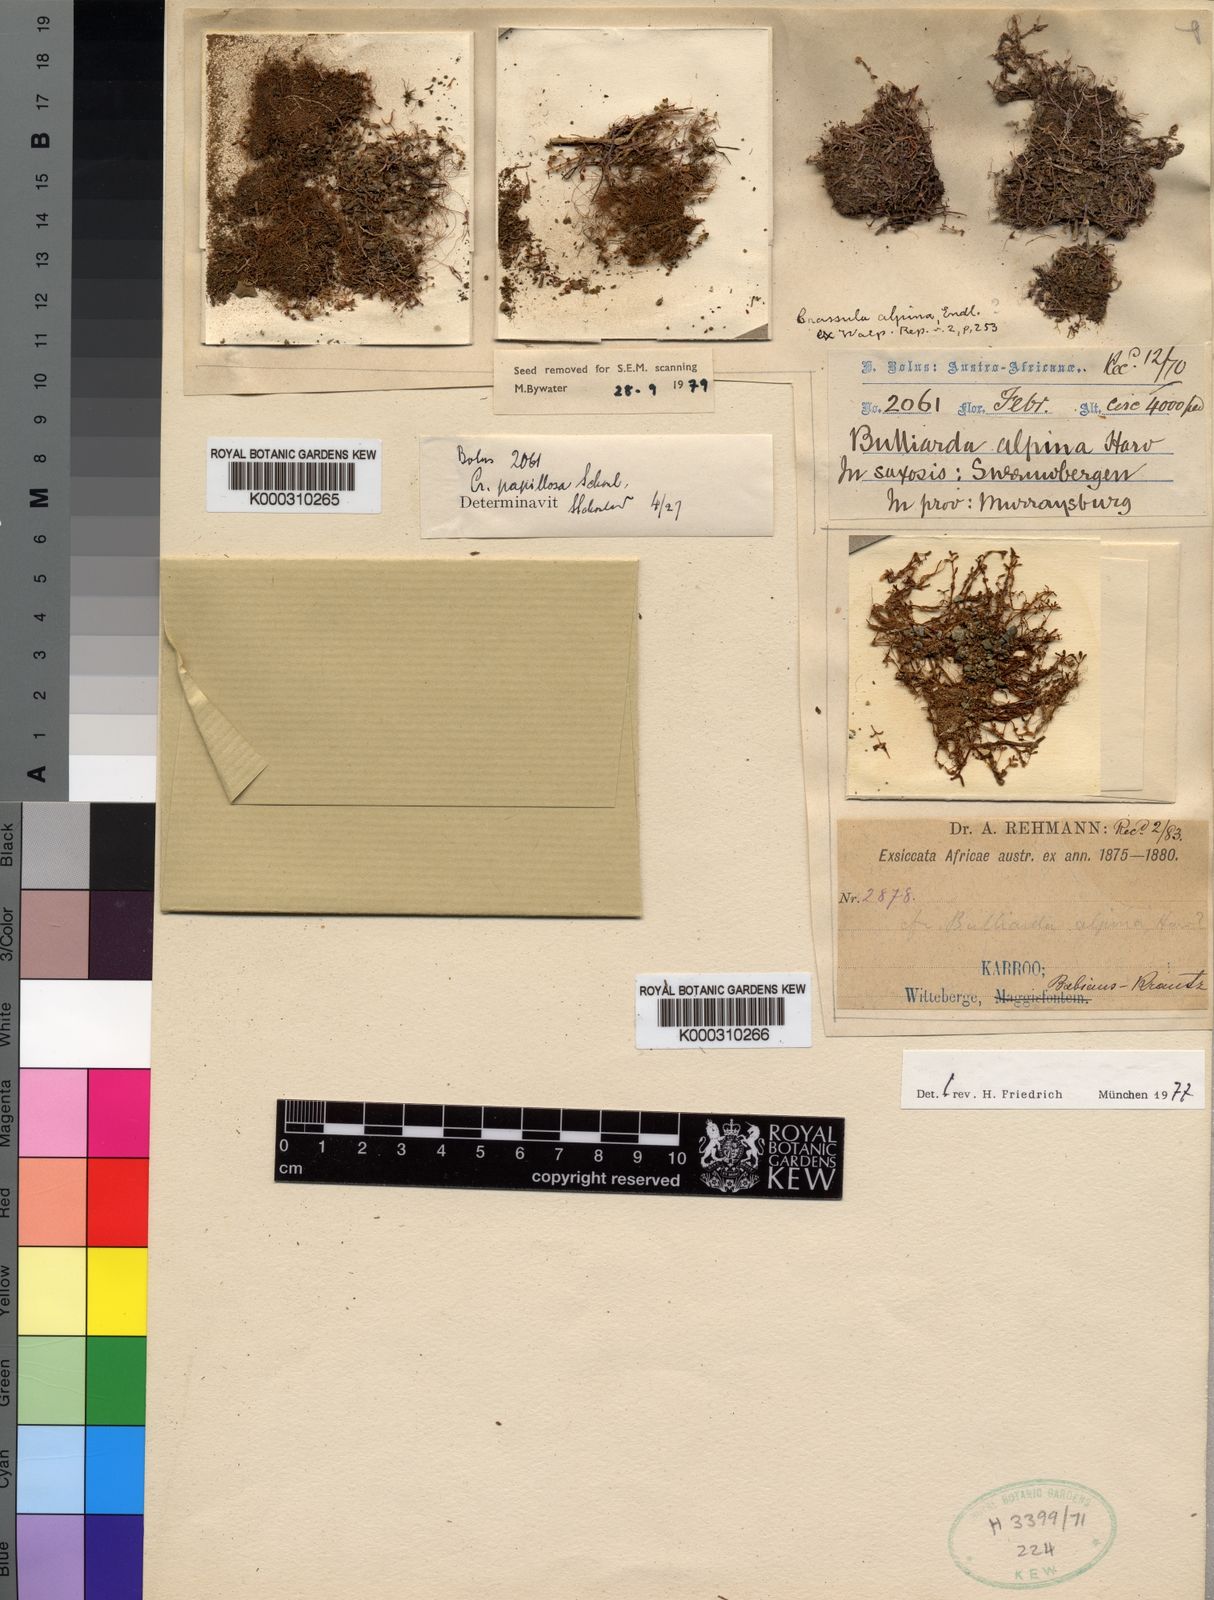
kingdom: Plantae
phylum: Tracheophyta
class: Magnoliopsida
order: Saxifragales
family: Crassulaceae
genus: Crassula
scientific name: Crassula
